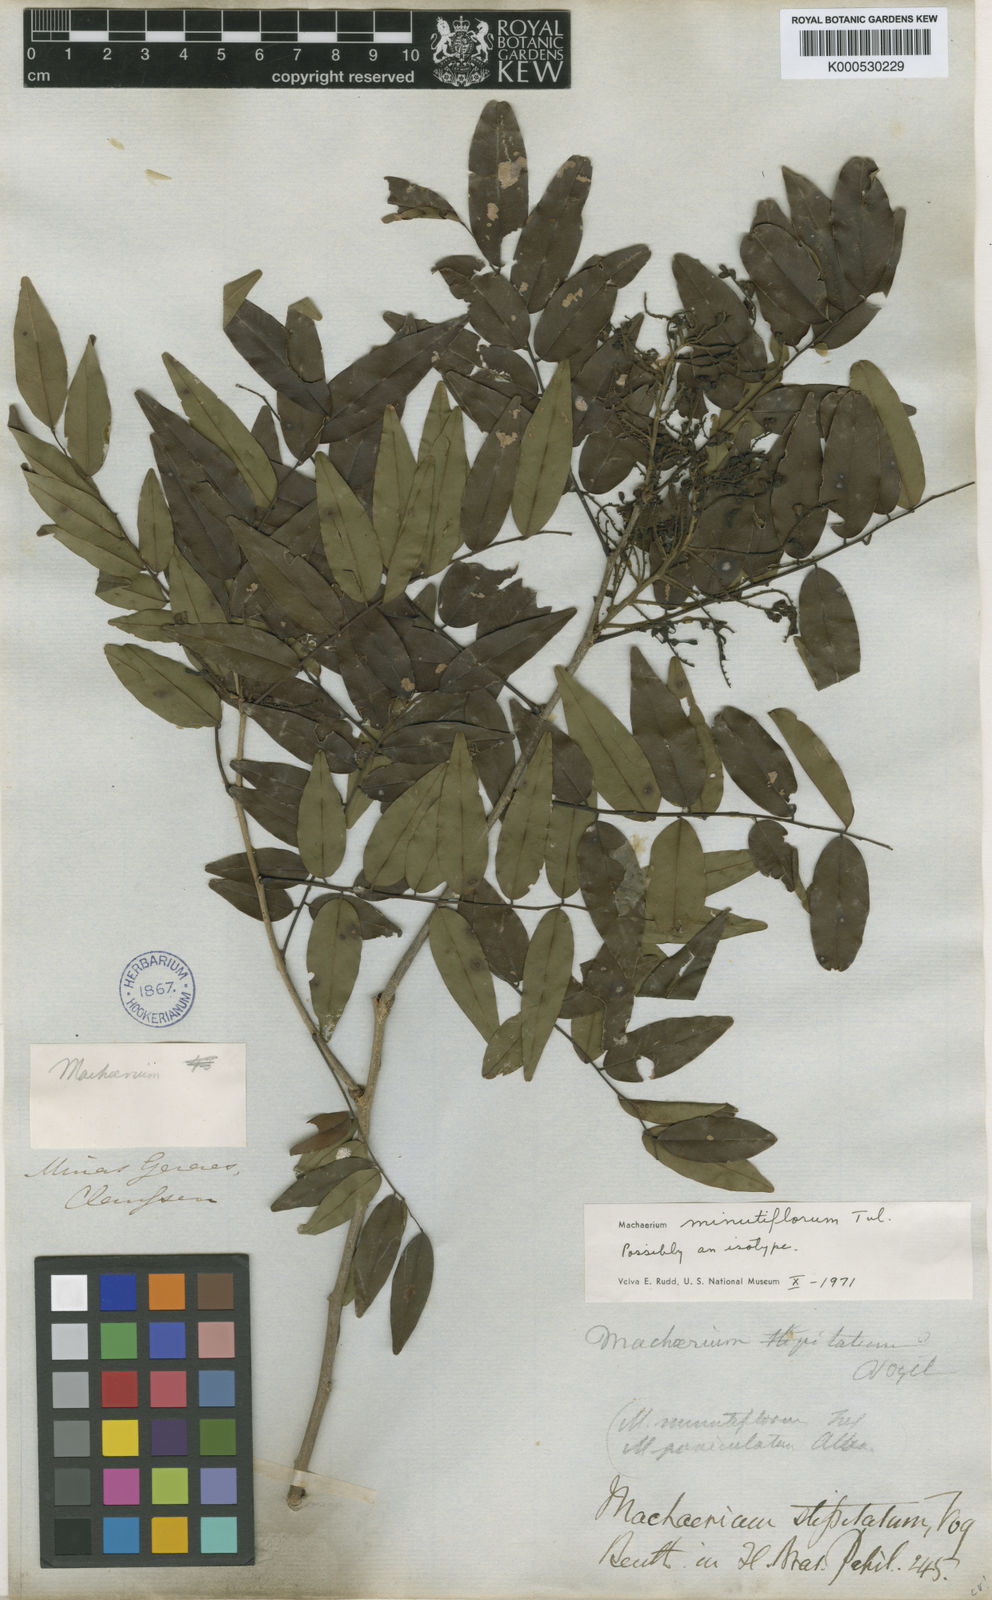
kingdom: Plantae
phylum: Tracheophyta
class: Magnoliopsida
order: Fabales
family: Fabaceae
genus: Machaerium
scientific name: Machaerium stipitatum
